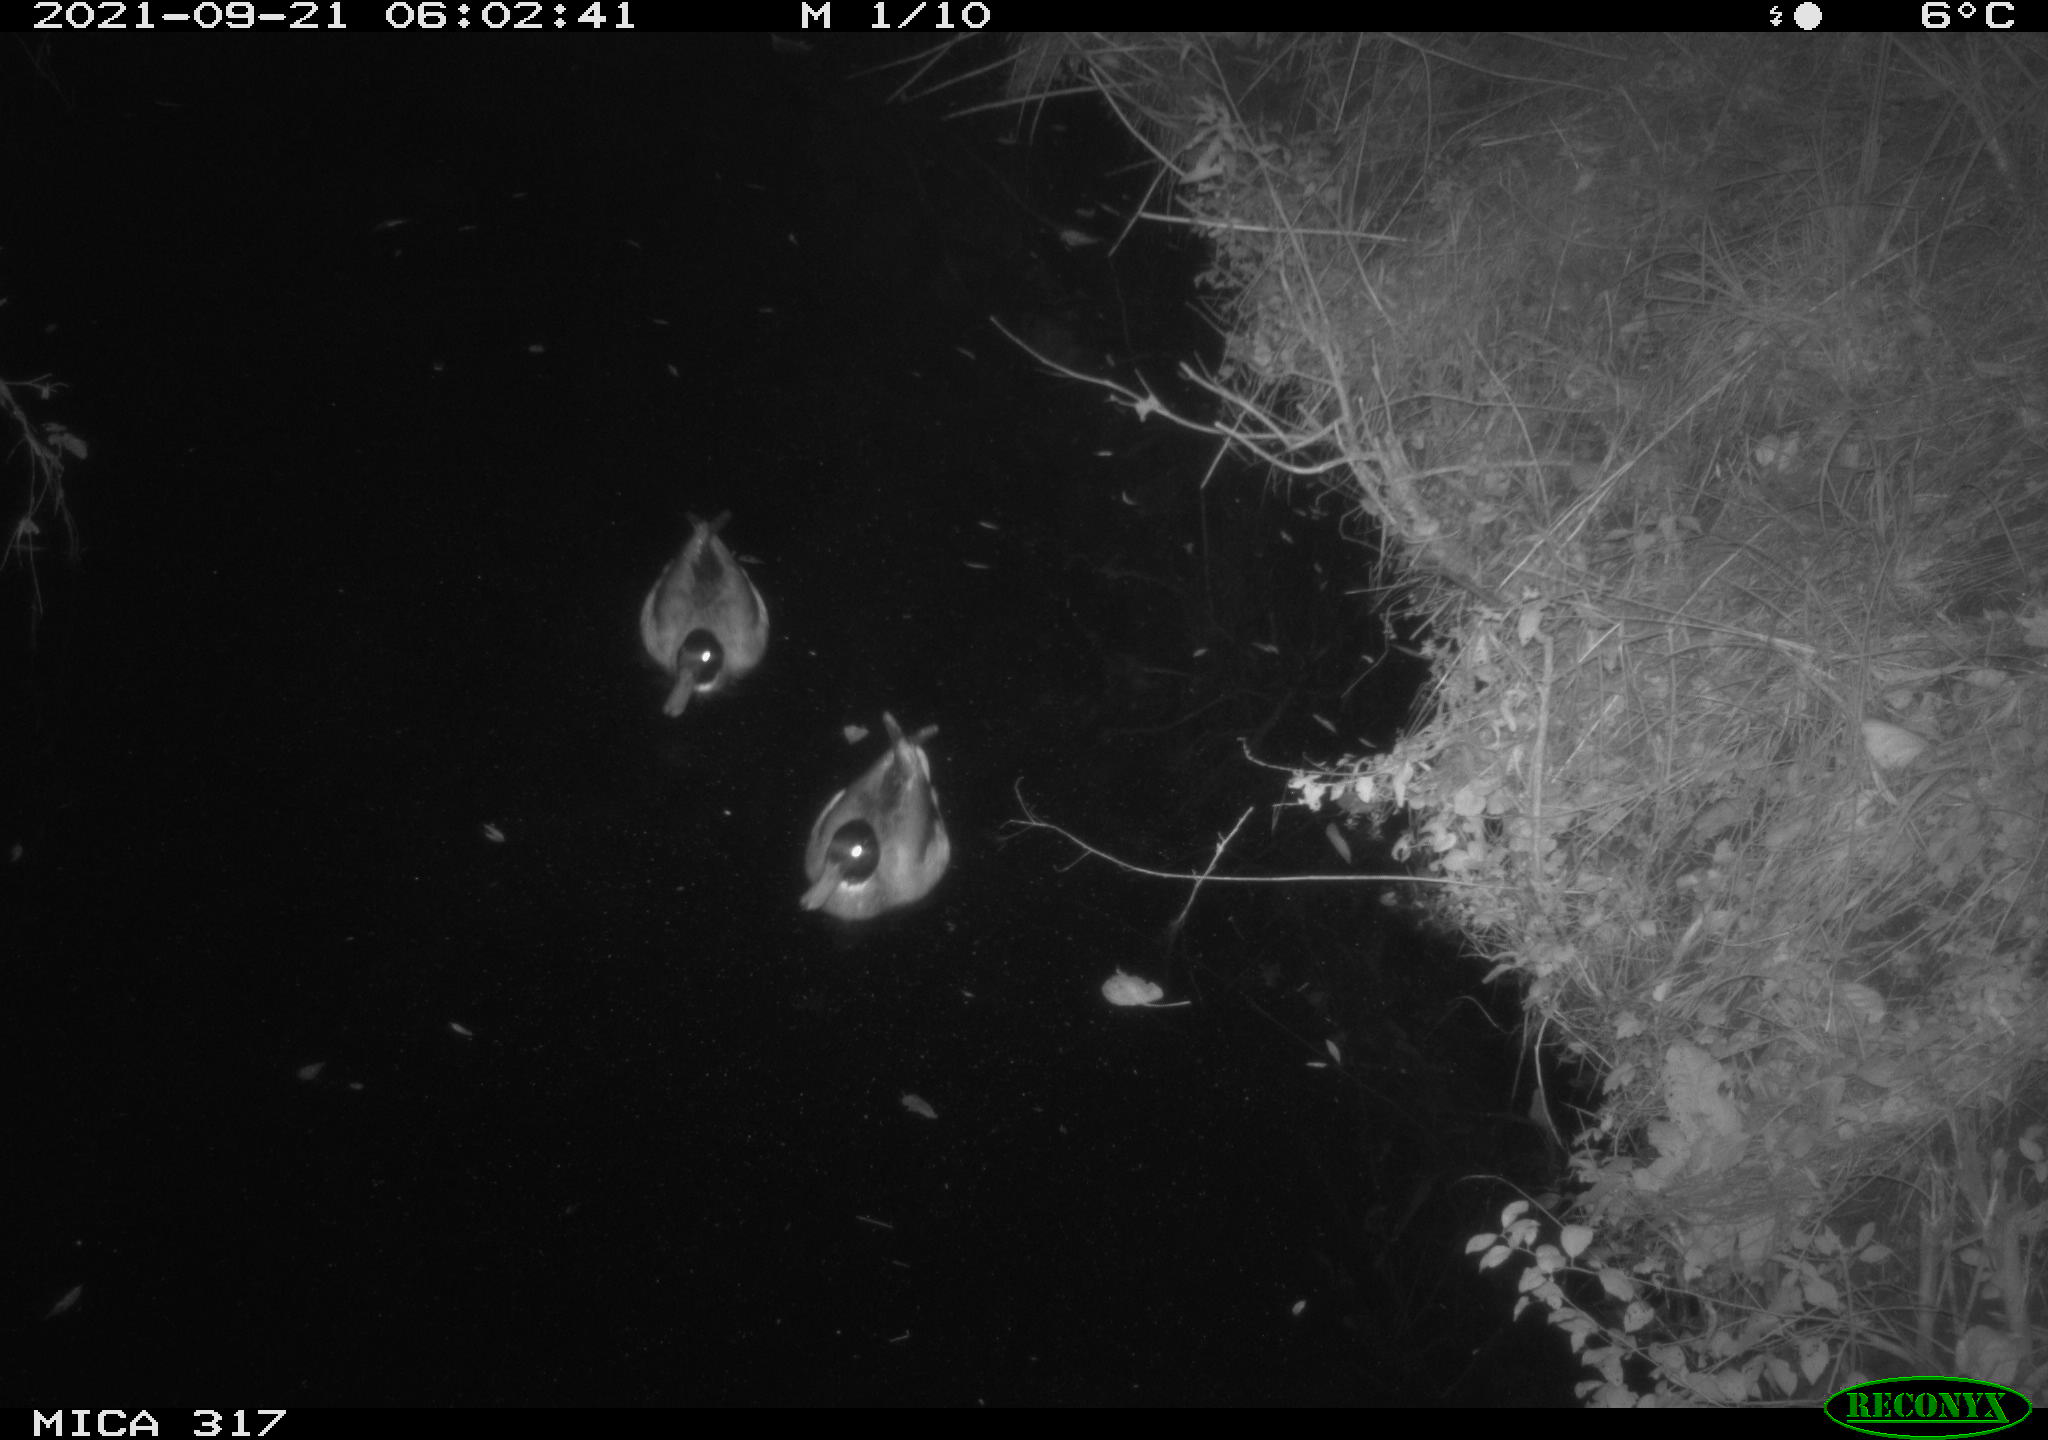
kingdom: Animalia
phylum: Chordata
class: Aves
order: Anseriformes
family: Anatidae
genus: Anas
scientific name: Anas platyrhynchos
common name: Mallard
